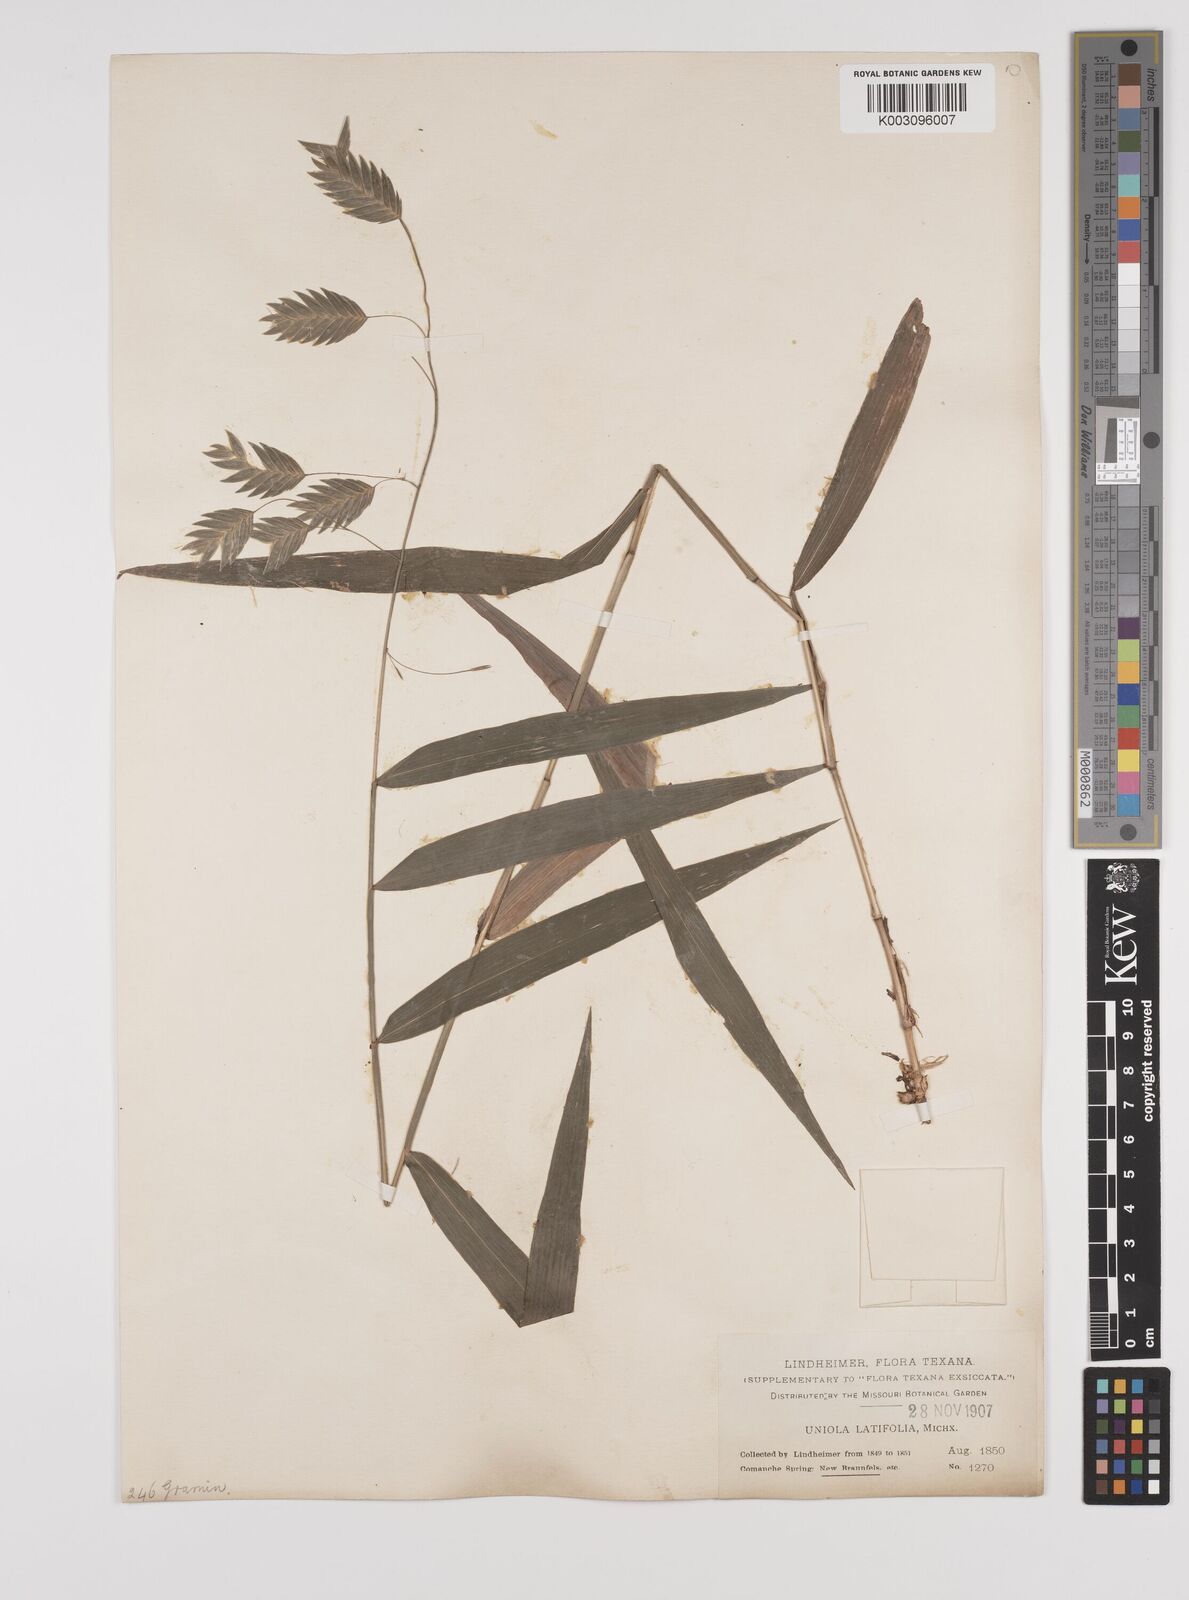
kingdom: Plantae
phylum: Tracheophyta
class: Liliopsida
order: Poales
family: Poaceae
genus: Chasmanthium
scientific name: Chasmanthium latifolium
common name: Broad-leaved chasmanthium
